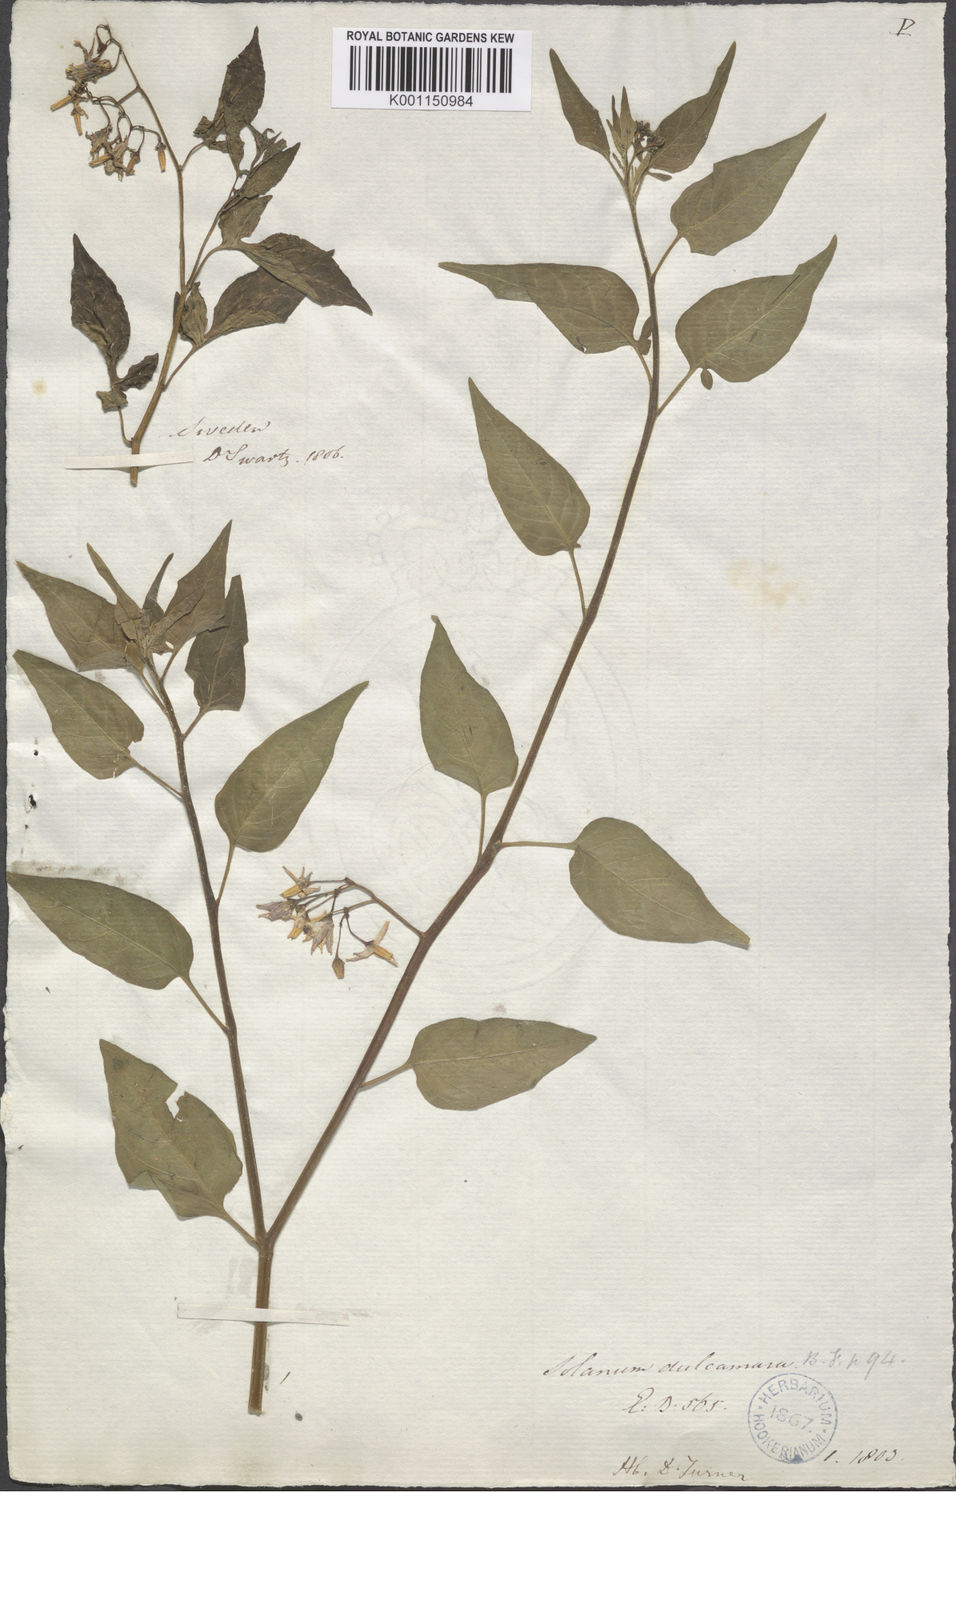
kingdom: Plantae
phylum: Tracheophyta
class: Magnoliopsida
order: Solanales
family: Solanaceae
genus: Solanum
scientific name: Solanum dulcamara
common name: Climbing nightshade
